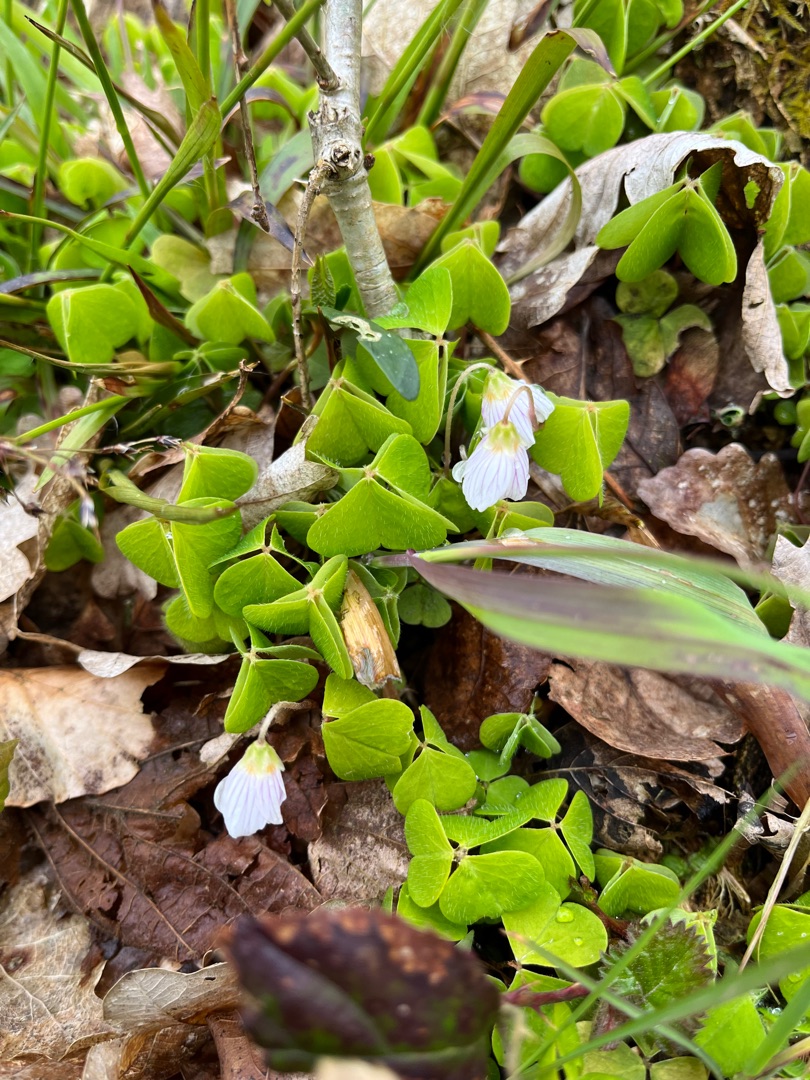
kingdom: Plantae
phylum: Tracheophyta
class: Magnoliopsida
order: Oxalidales
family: Oxalidaceae
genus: Oxalis
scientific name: Oxalis acetosella
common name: Skovsyre
